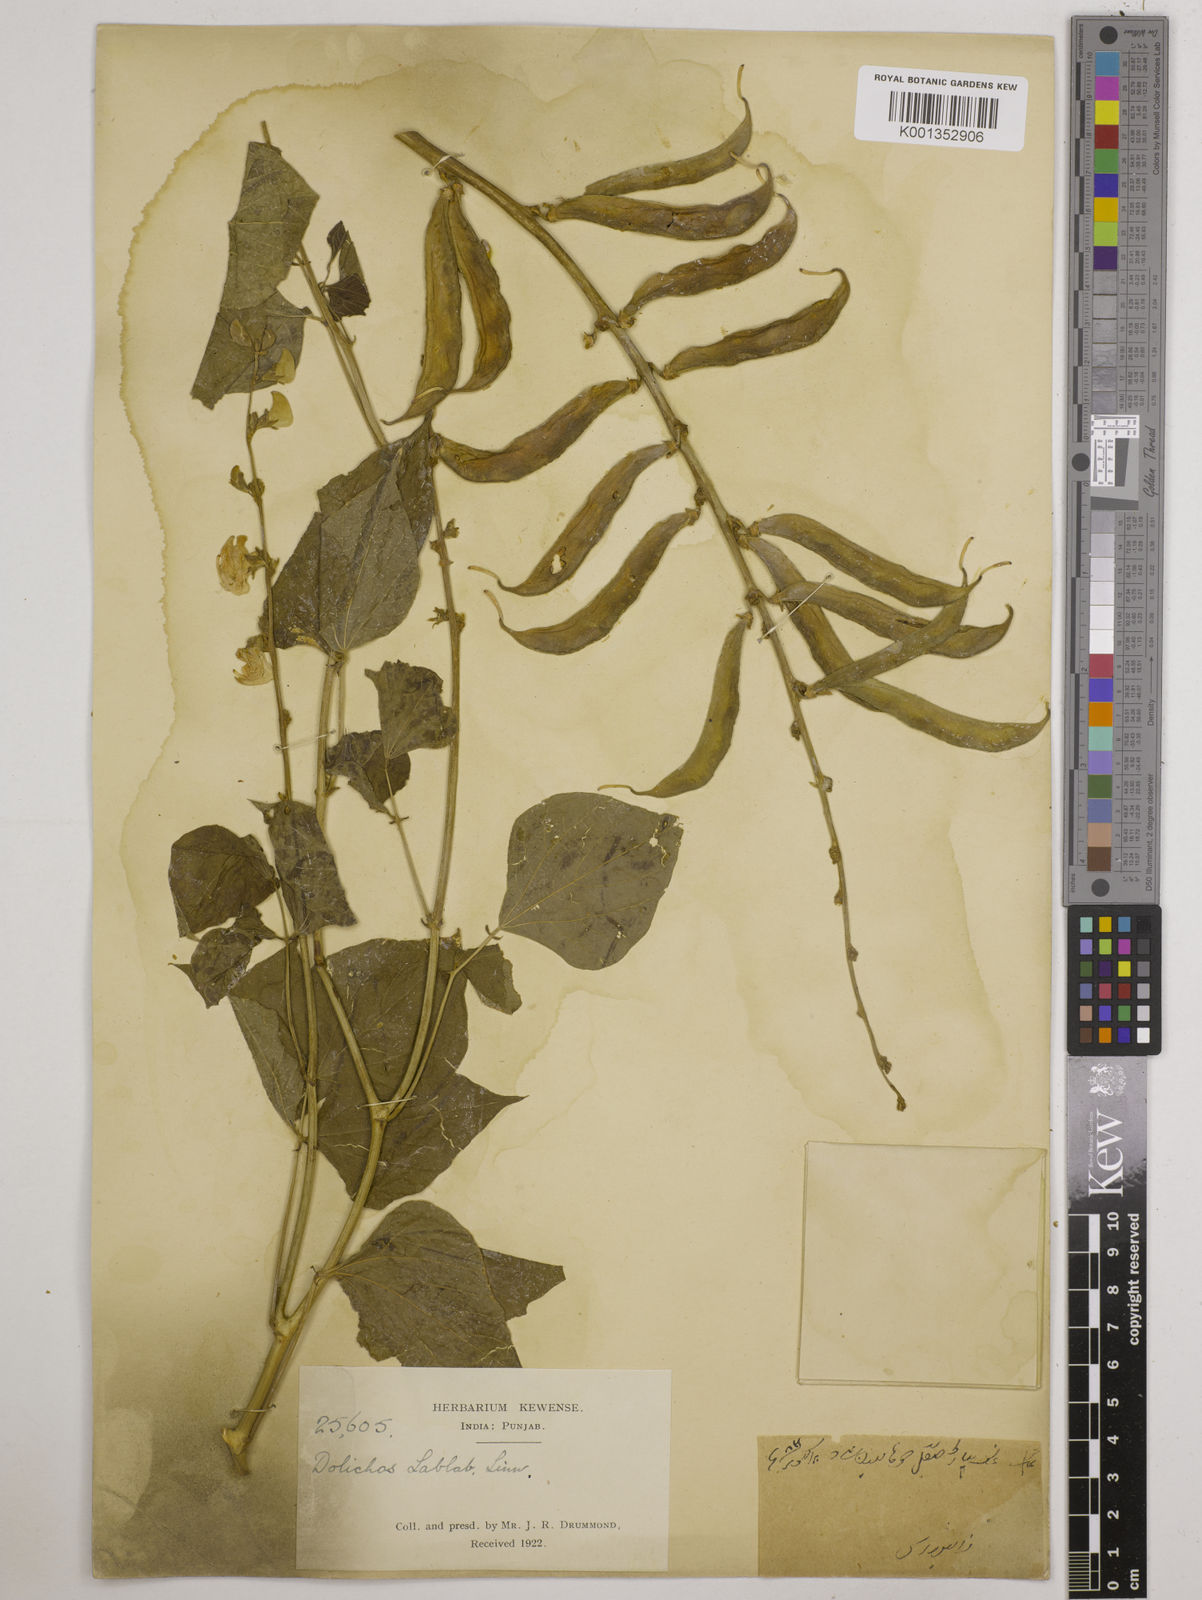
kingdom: Plantae
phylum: Tracheophyta
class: Magnoliopsida
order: Fabales
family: Fabaceae
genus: Lablab
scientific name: Lablab purpureus
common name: Lablab-bean
